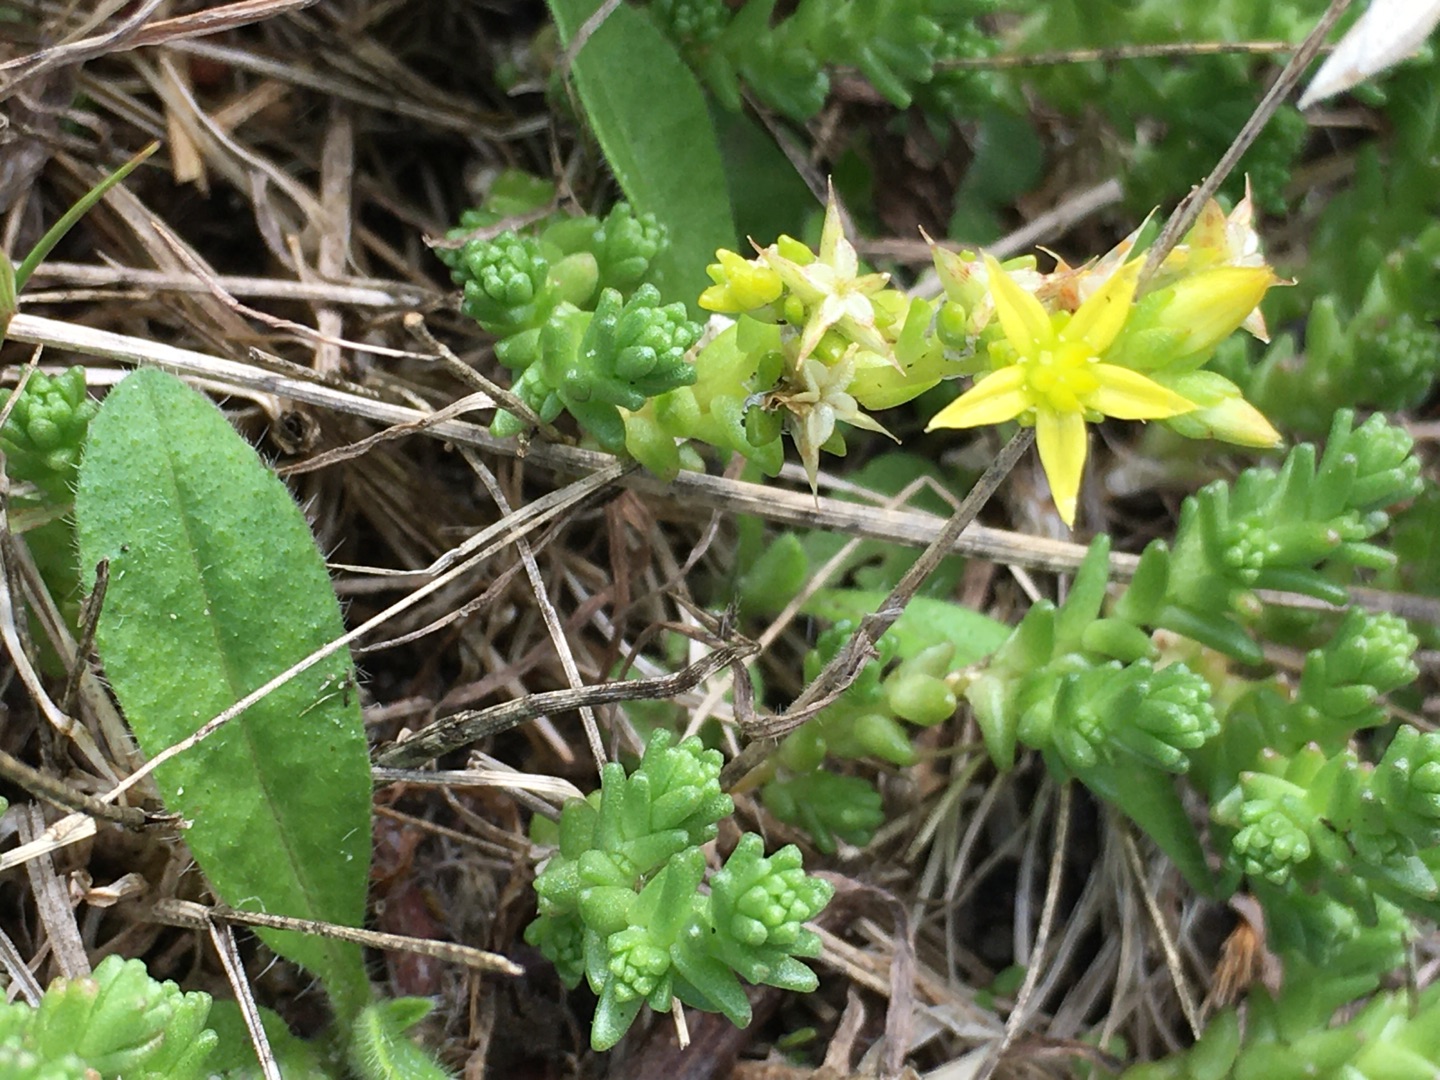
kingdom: Plantae
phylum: Tracheophyta
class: Magnoliopsida
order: Saxifragales
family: Crassulaceae
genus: Sedum
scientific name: Sedum acre
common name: Bidende stenurt
